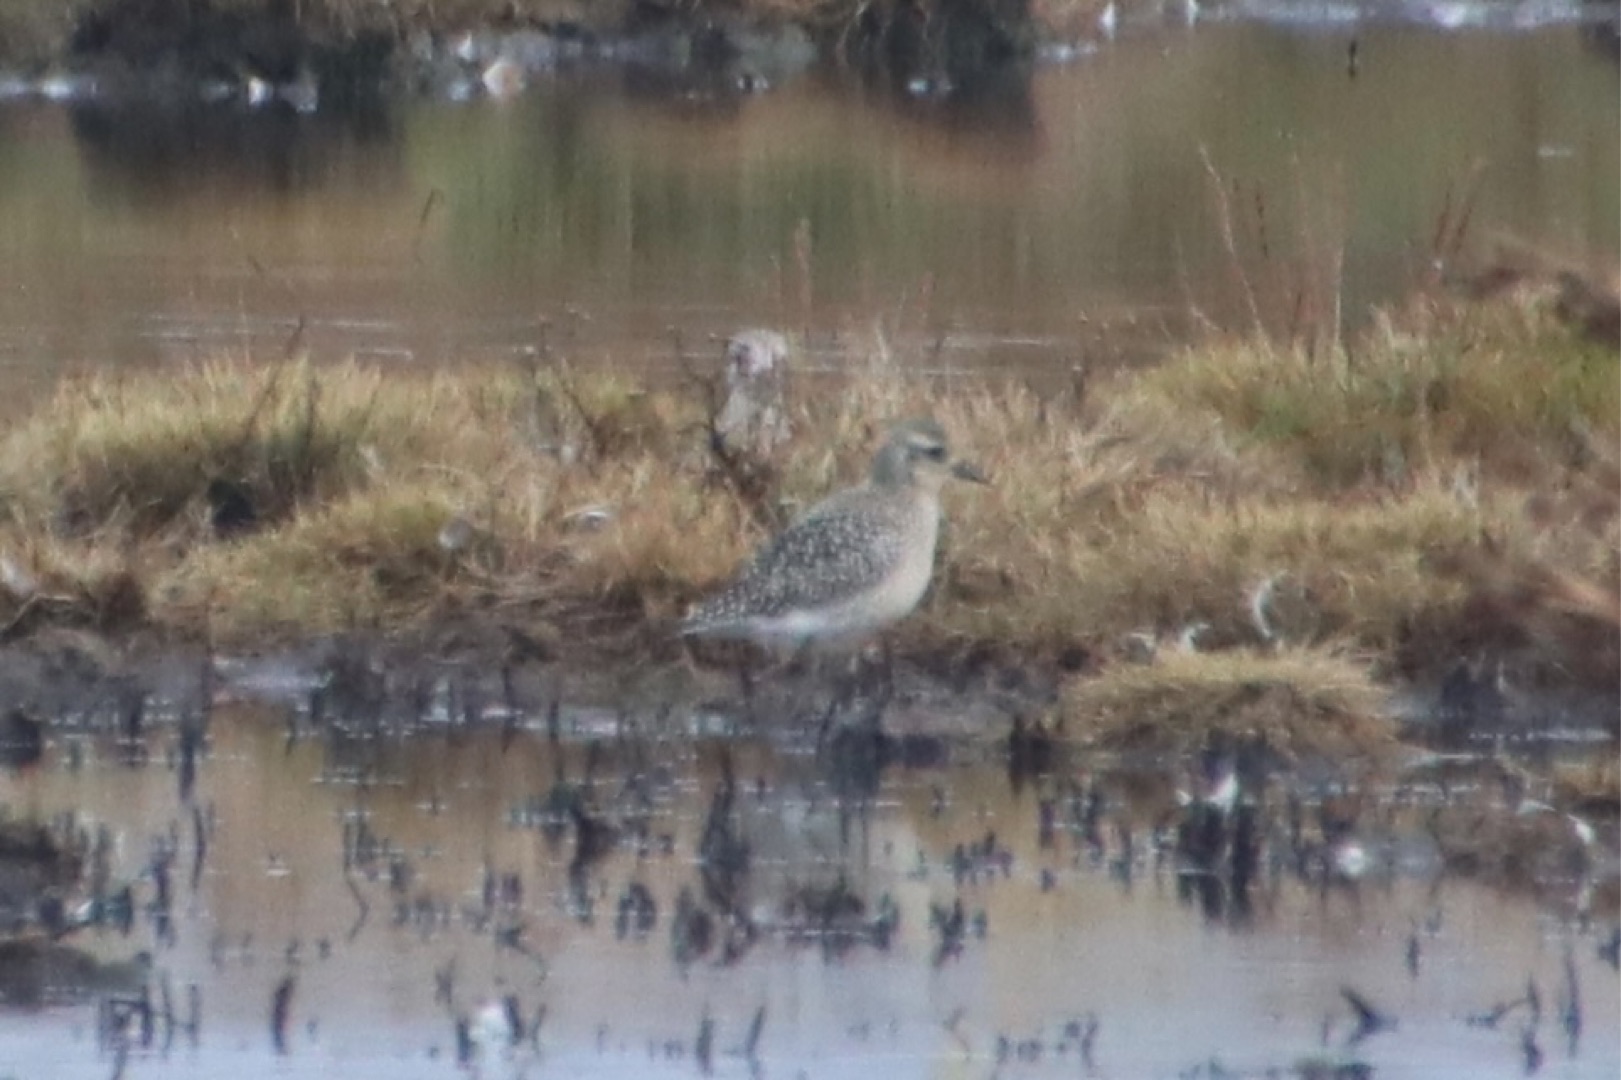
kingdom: Animalia
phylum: Chordata
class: Aves
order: Charadriiformes
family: Charadriidae
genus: Pluvialis
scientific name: Pluvialis squatarola
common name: Strandhjejle
